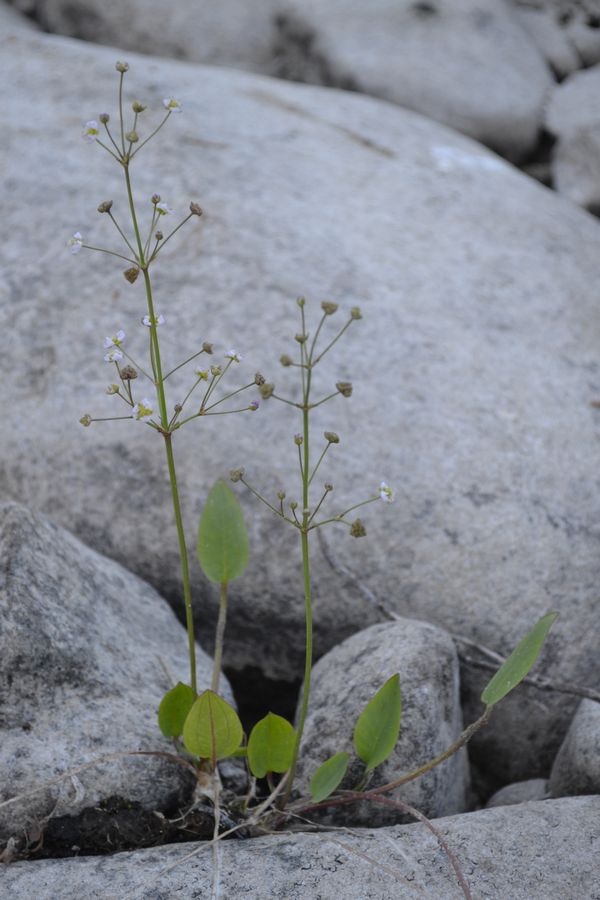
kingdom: Plantae
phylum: Tracheophyta
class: Liliopsida
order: Alismatales
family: Alismataceae
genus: Alisma
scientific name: Alisma juzepczukii
